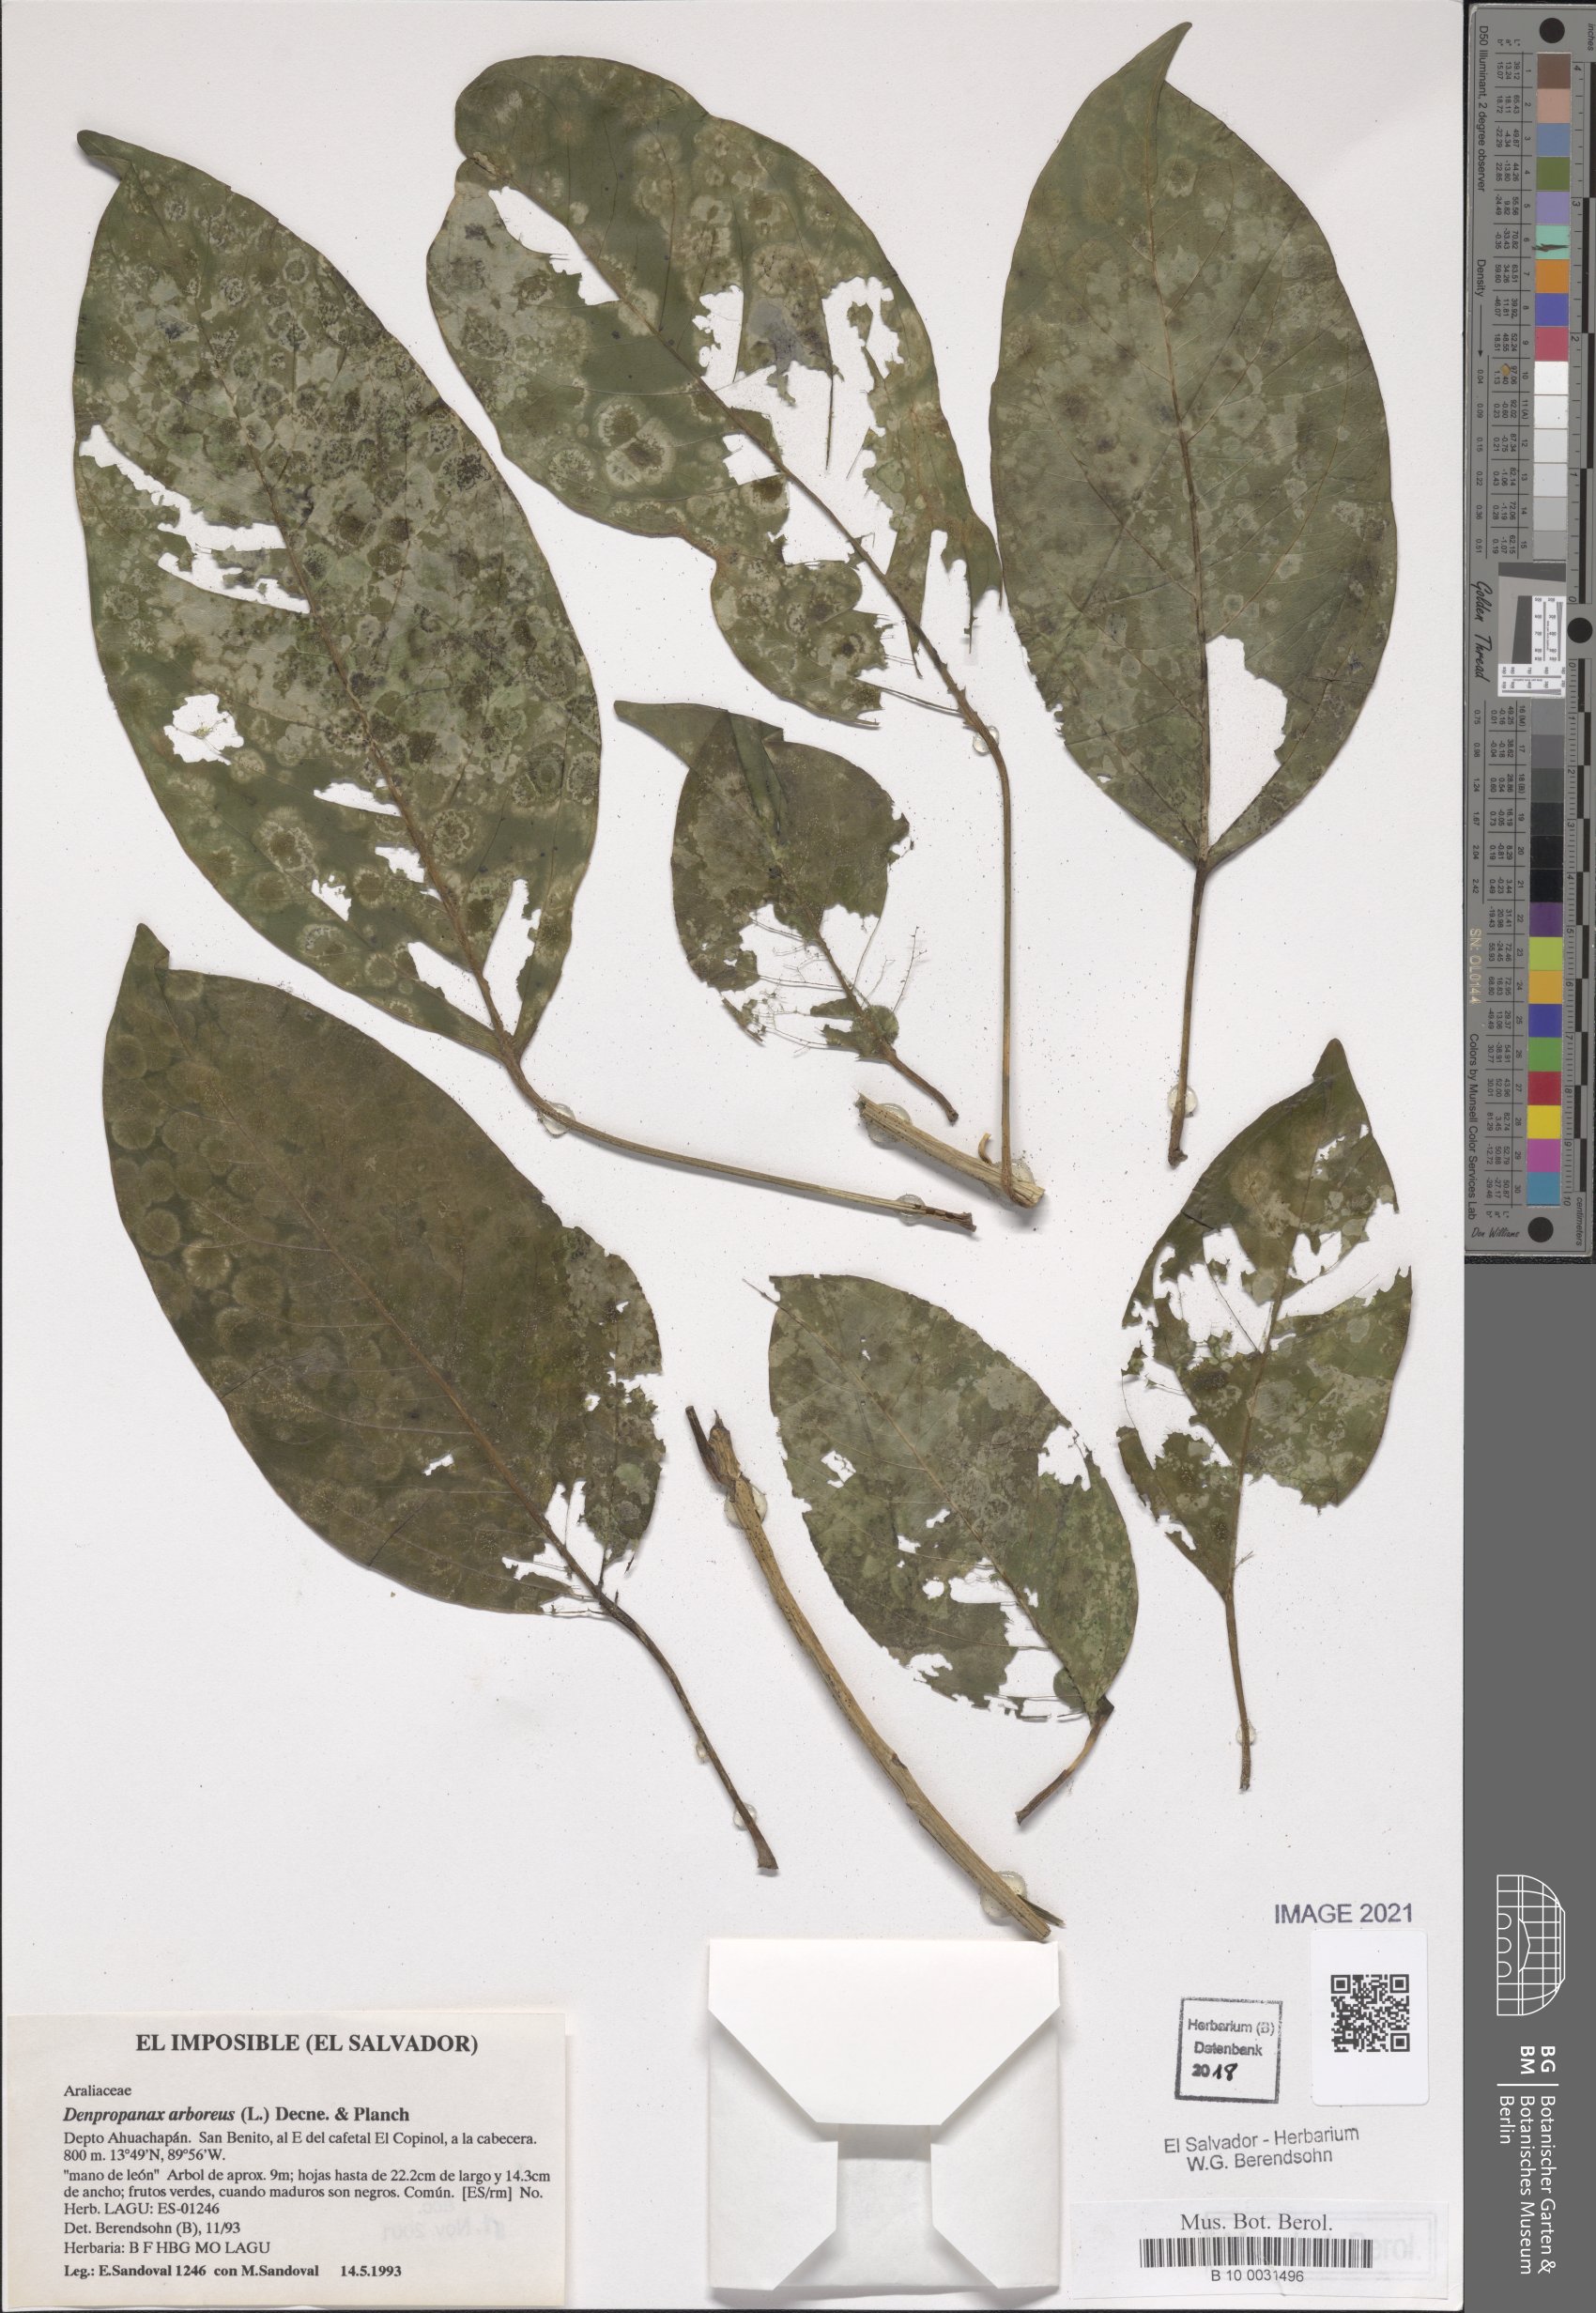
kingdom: Plantae
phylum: Tracheophyta
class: Magnoliopsida
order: Apiales
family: Araliaceae
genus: Dendropanax
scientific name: Dendropanax arboreus
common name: Potato-wood
